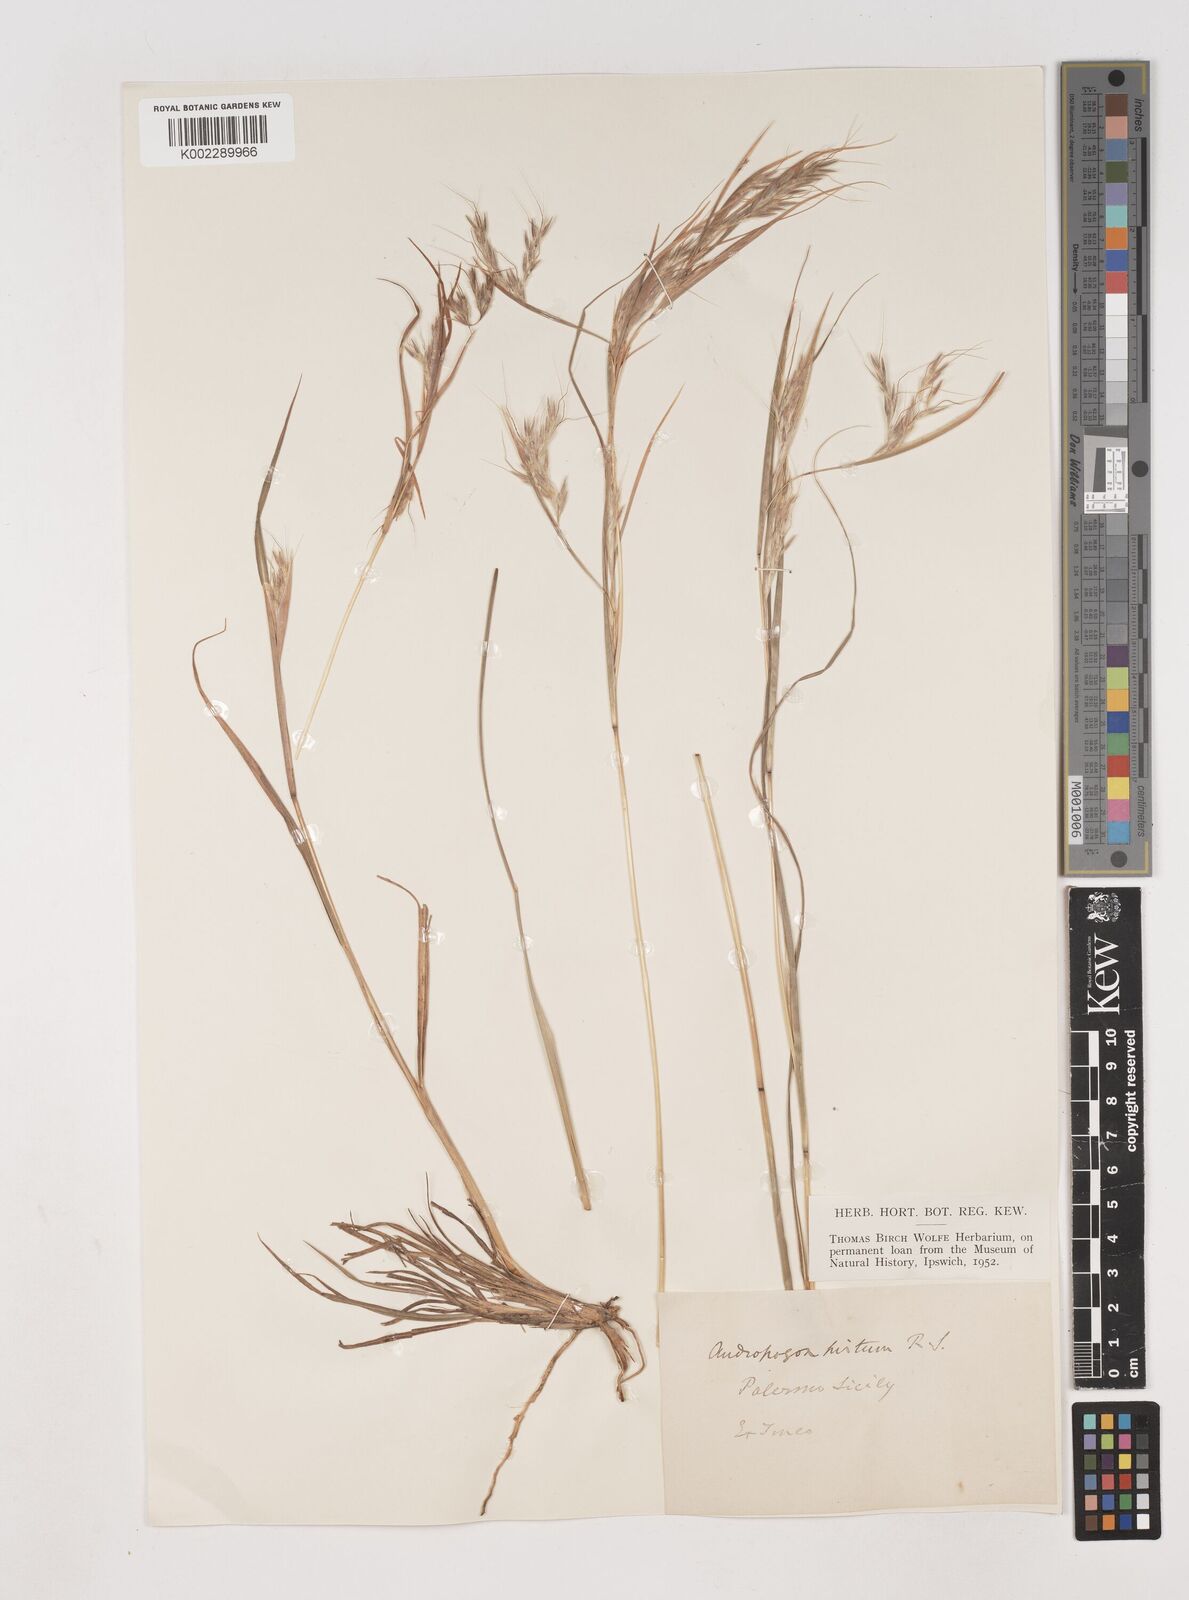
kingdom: Plantae
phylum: Tracheophyta
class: Liliopsida
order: Poales
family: Poaceae
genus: Hyparrhenia
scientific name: Hyparrhenia hirta
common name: Thatching grass
